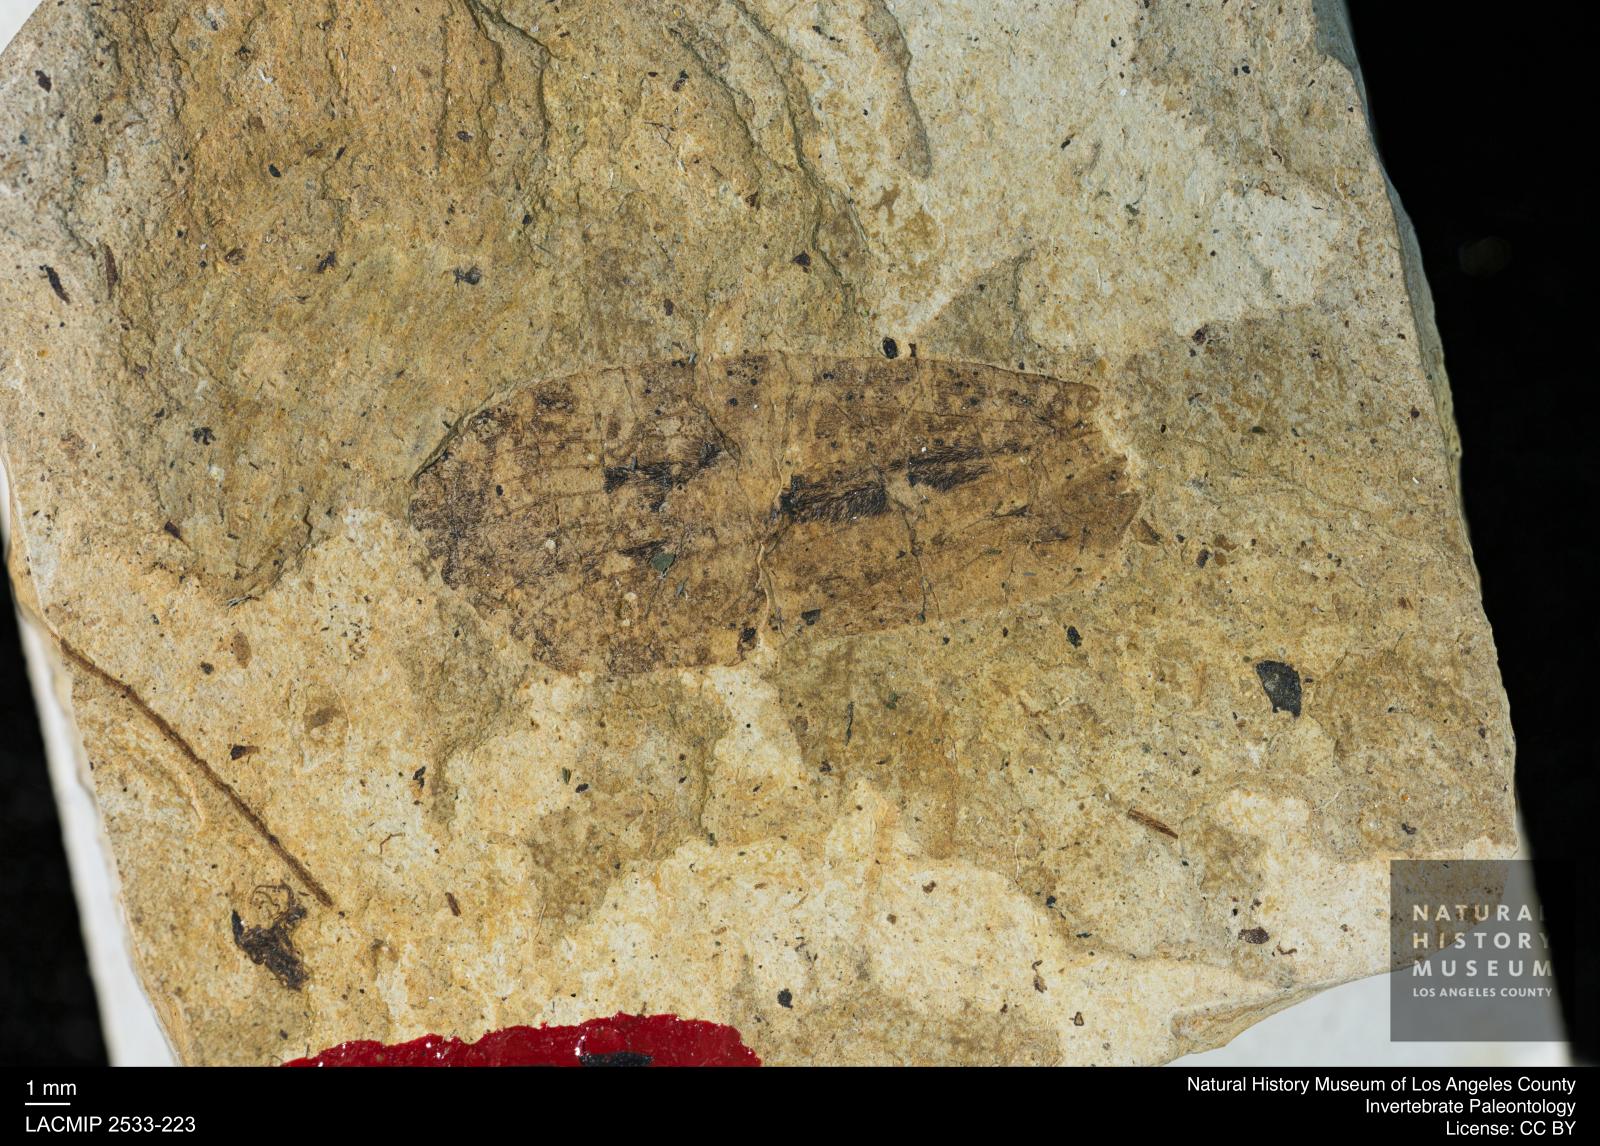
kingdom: Animalia
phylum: Arthropoda
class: Insecta
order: Trichoptera
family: Phryganeidae
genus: Phryganea
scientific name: Phryganea meunieri
